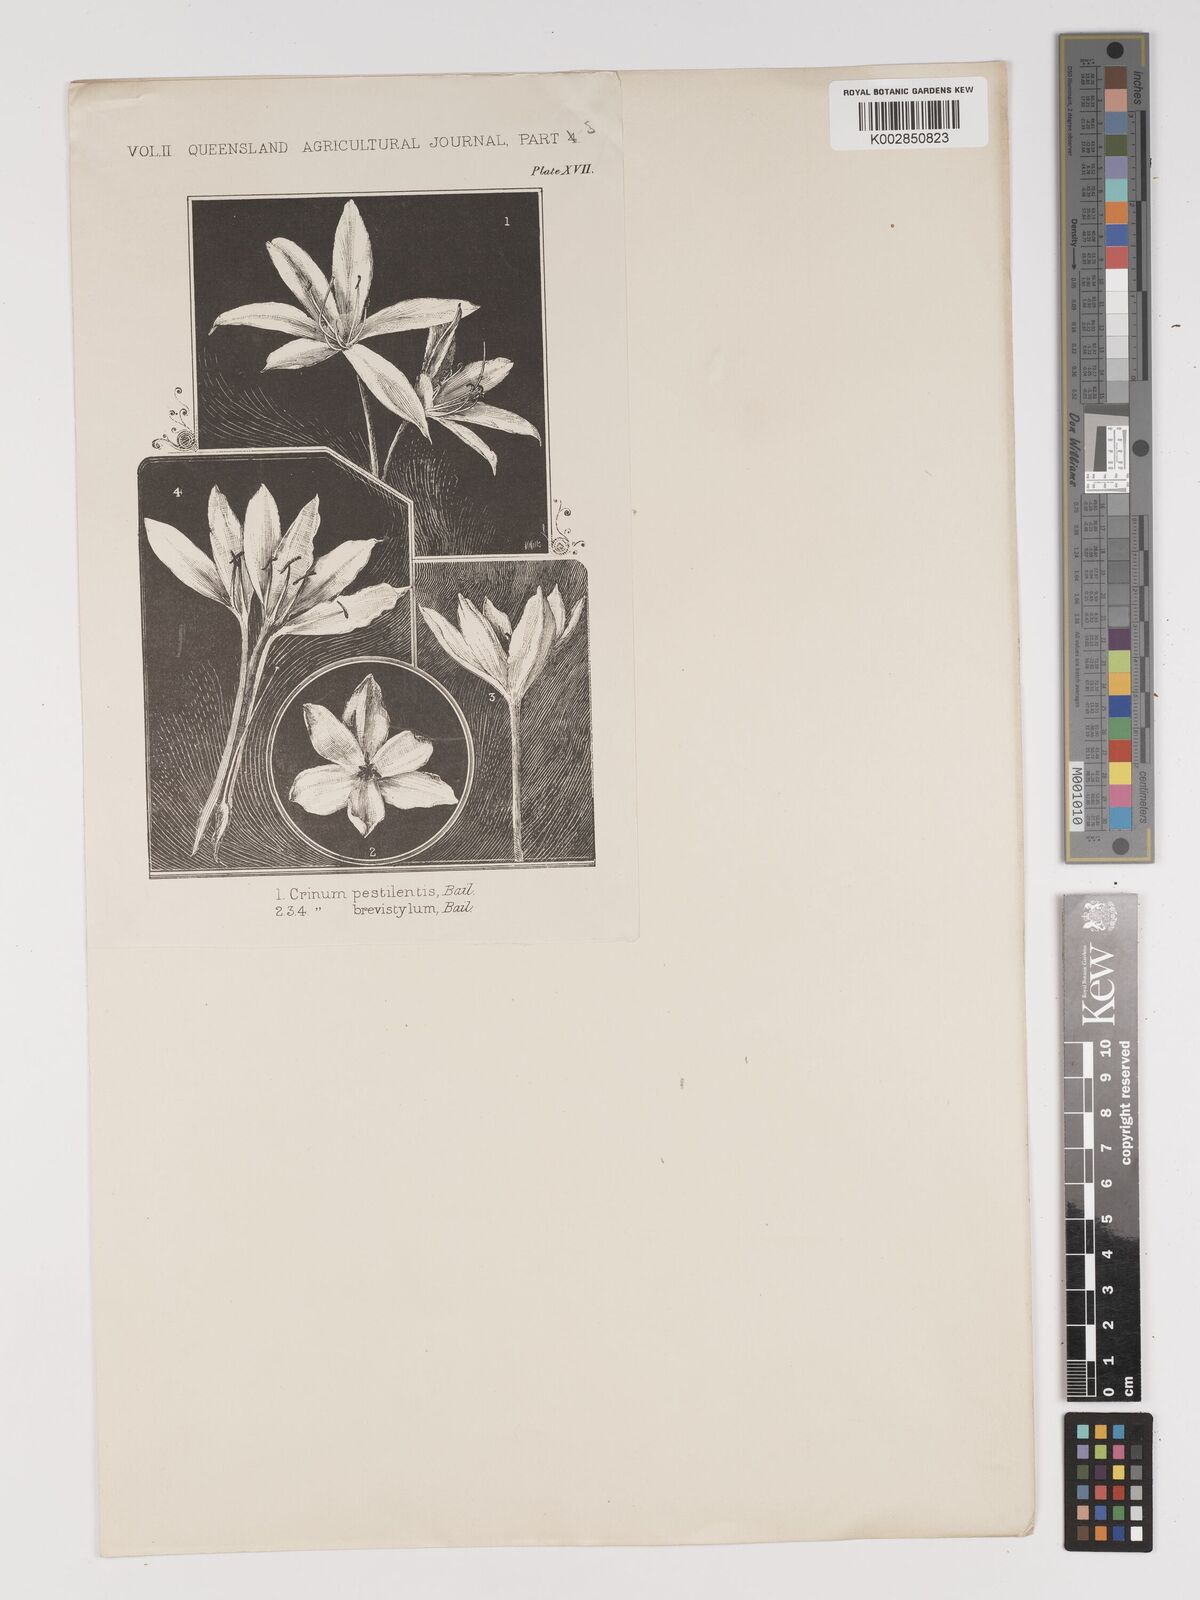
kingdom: Plantae
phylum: Tracheophyta
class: Liliopsida
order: Asparagales
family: Amaryllidaceae
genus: Crinum
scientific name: Crinum venosum
